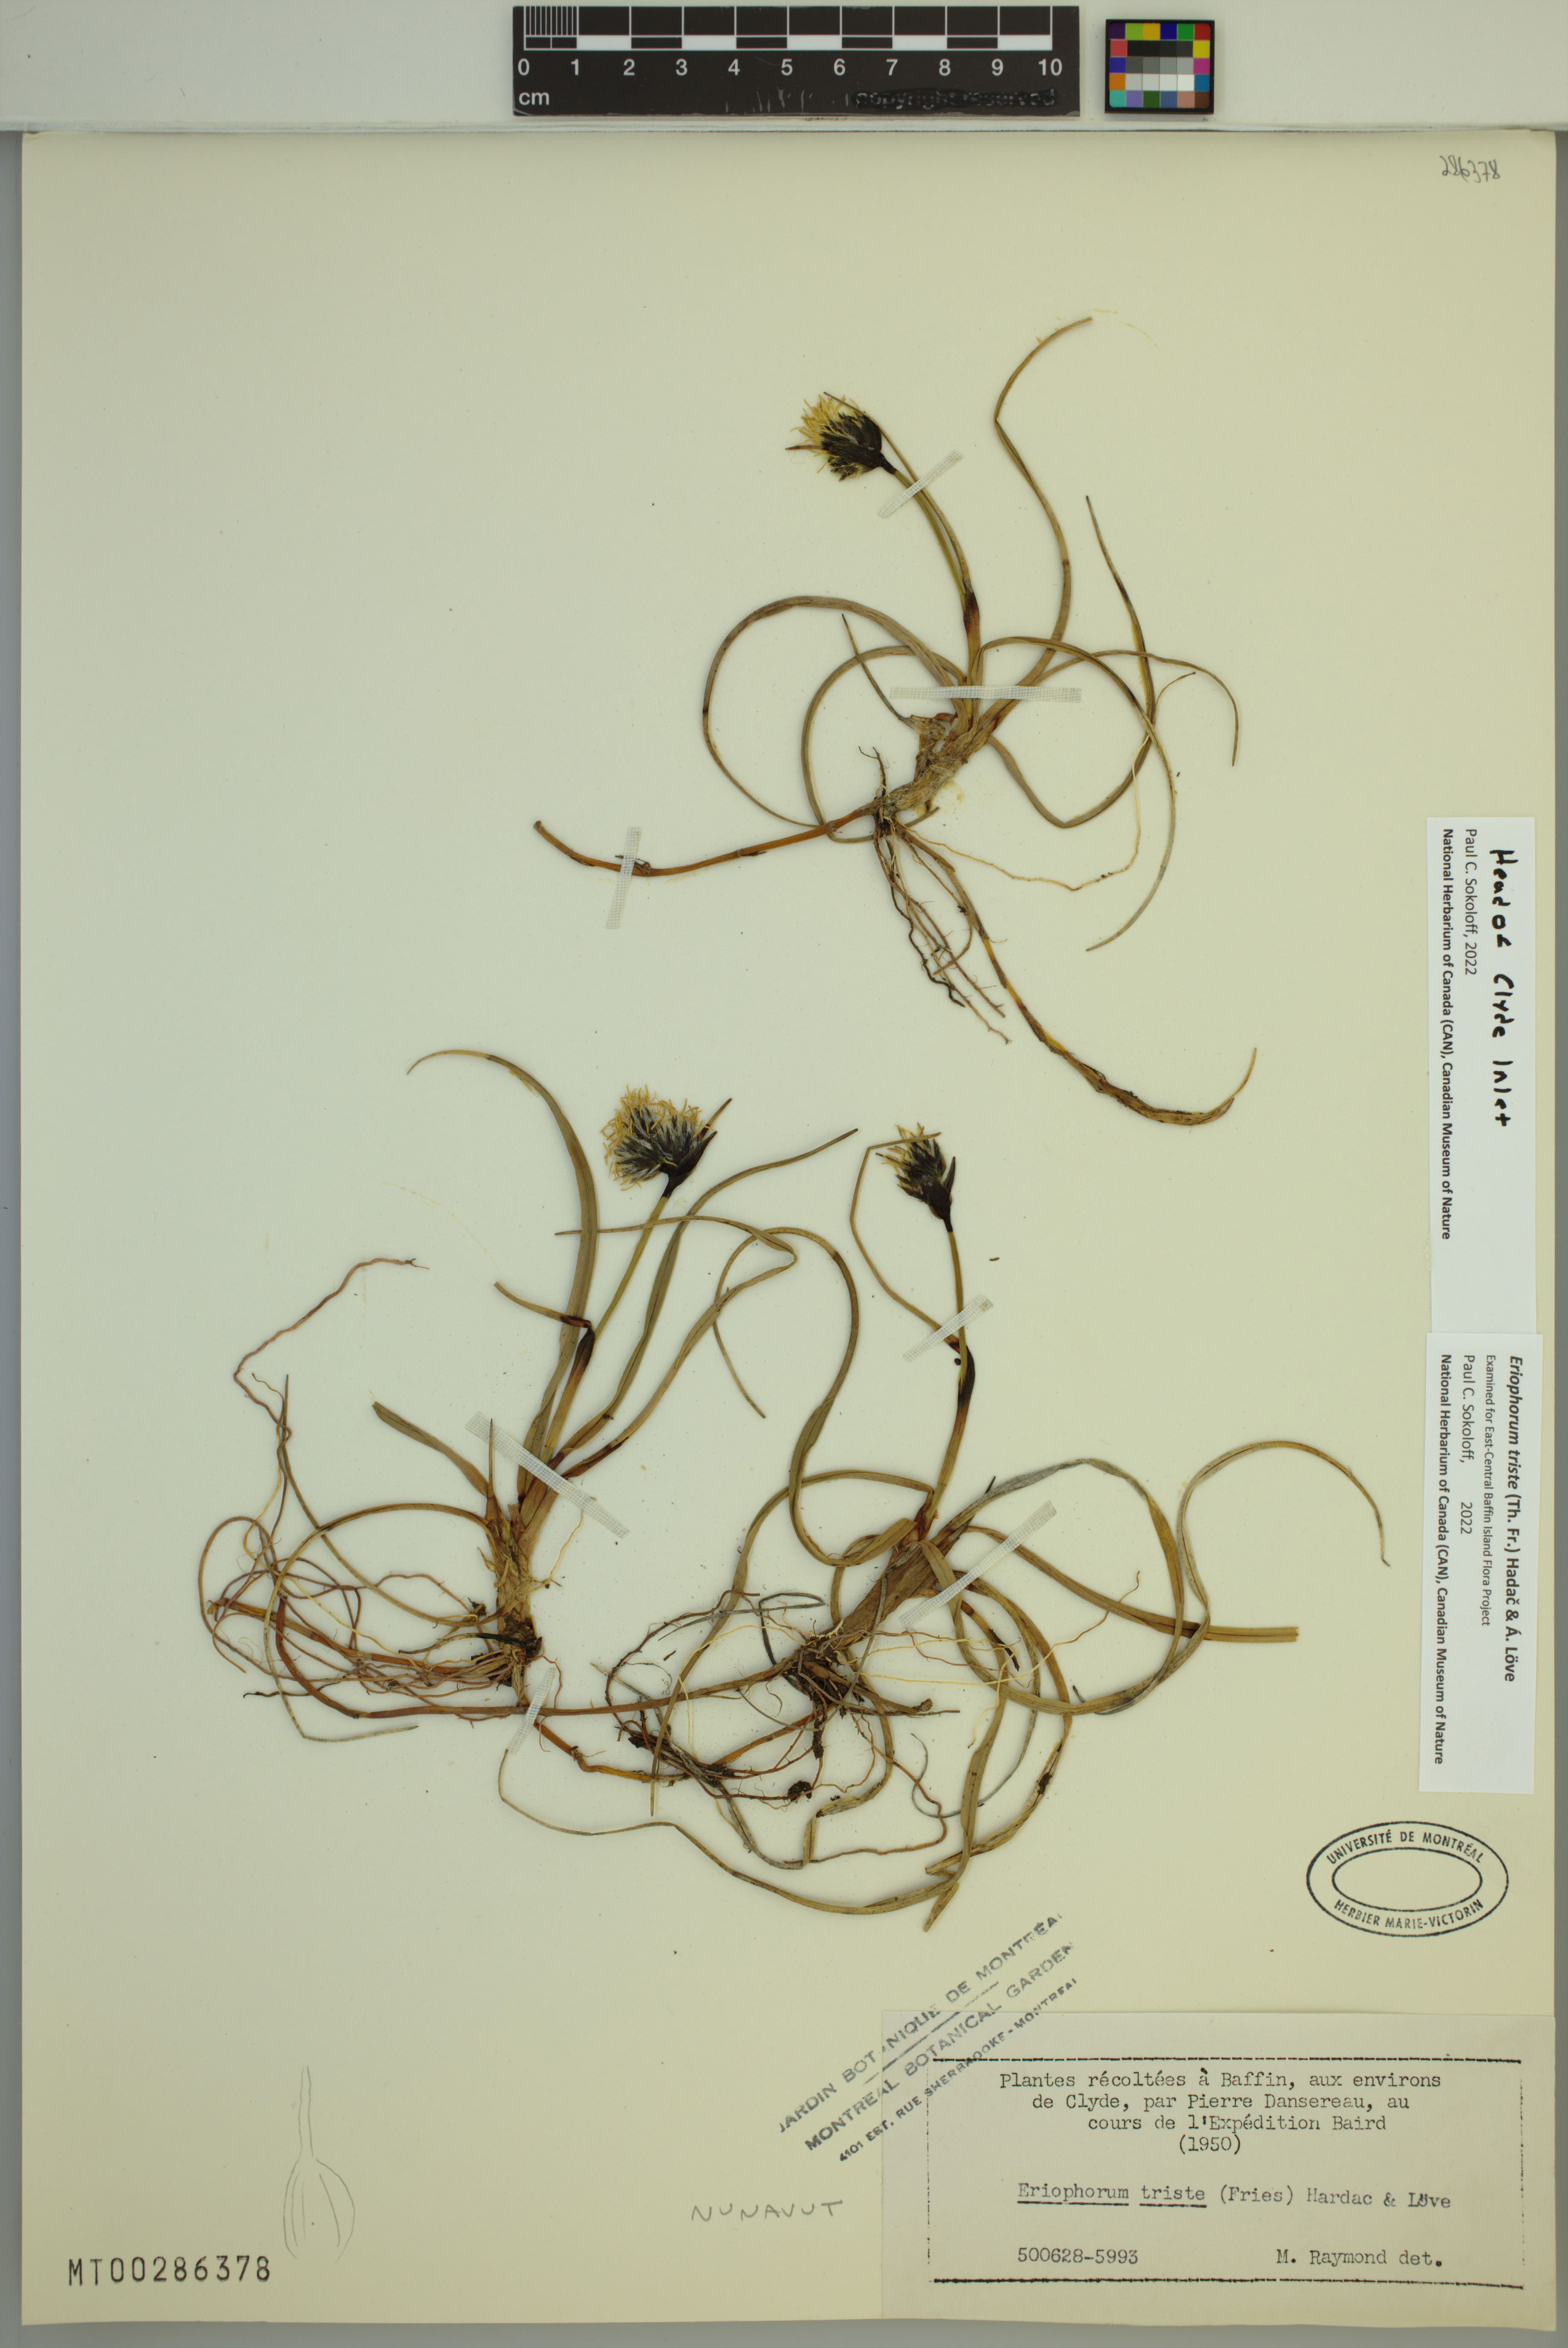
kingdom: Plantae
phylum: Tracheophyta
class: Liliopsida
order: Poales
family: Cyperaceae
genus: Eriophorum
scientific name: Eriophorum triste
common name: Tall cottongrass
